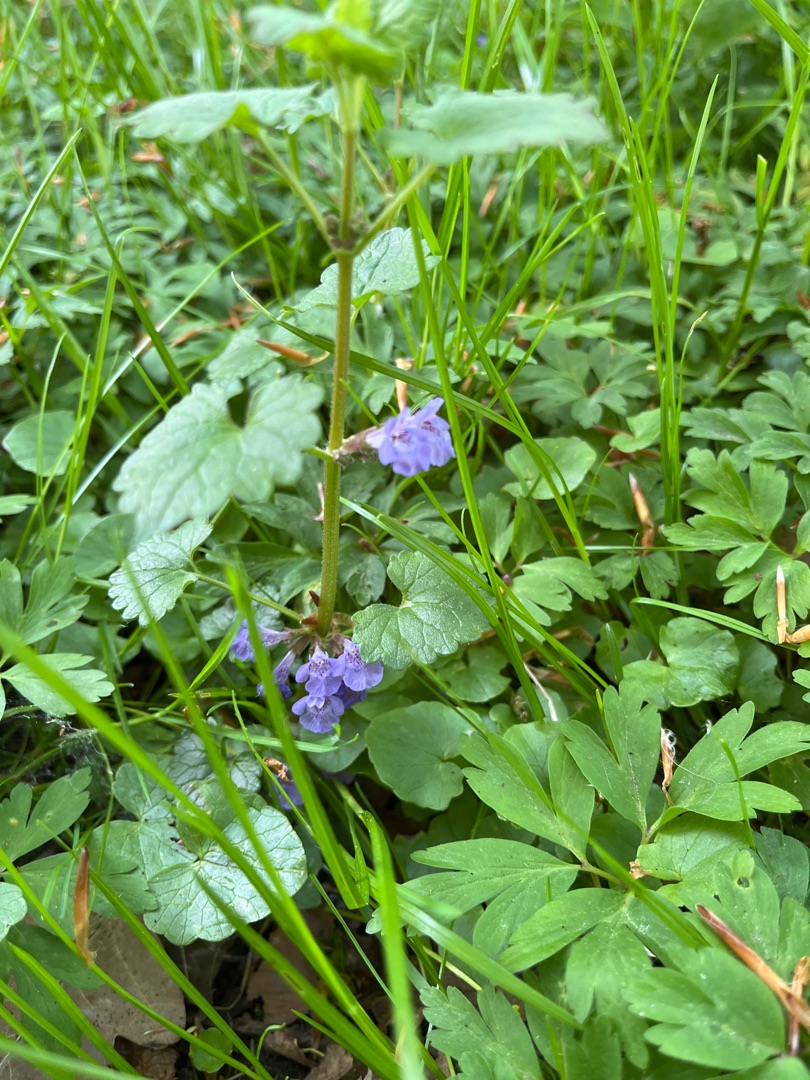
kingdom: Plantae
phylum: Tracheophyta
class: Magnoliopsida
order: Lamiales
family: Lamiaceae
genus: Glechoma
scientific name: Glechoma hederacea
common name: Korsknap
